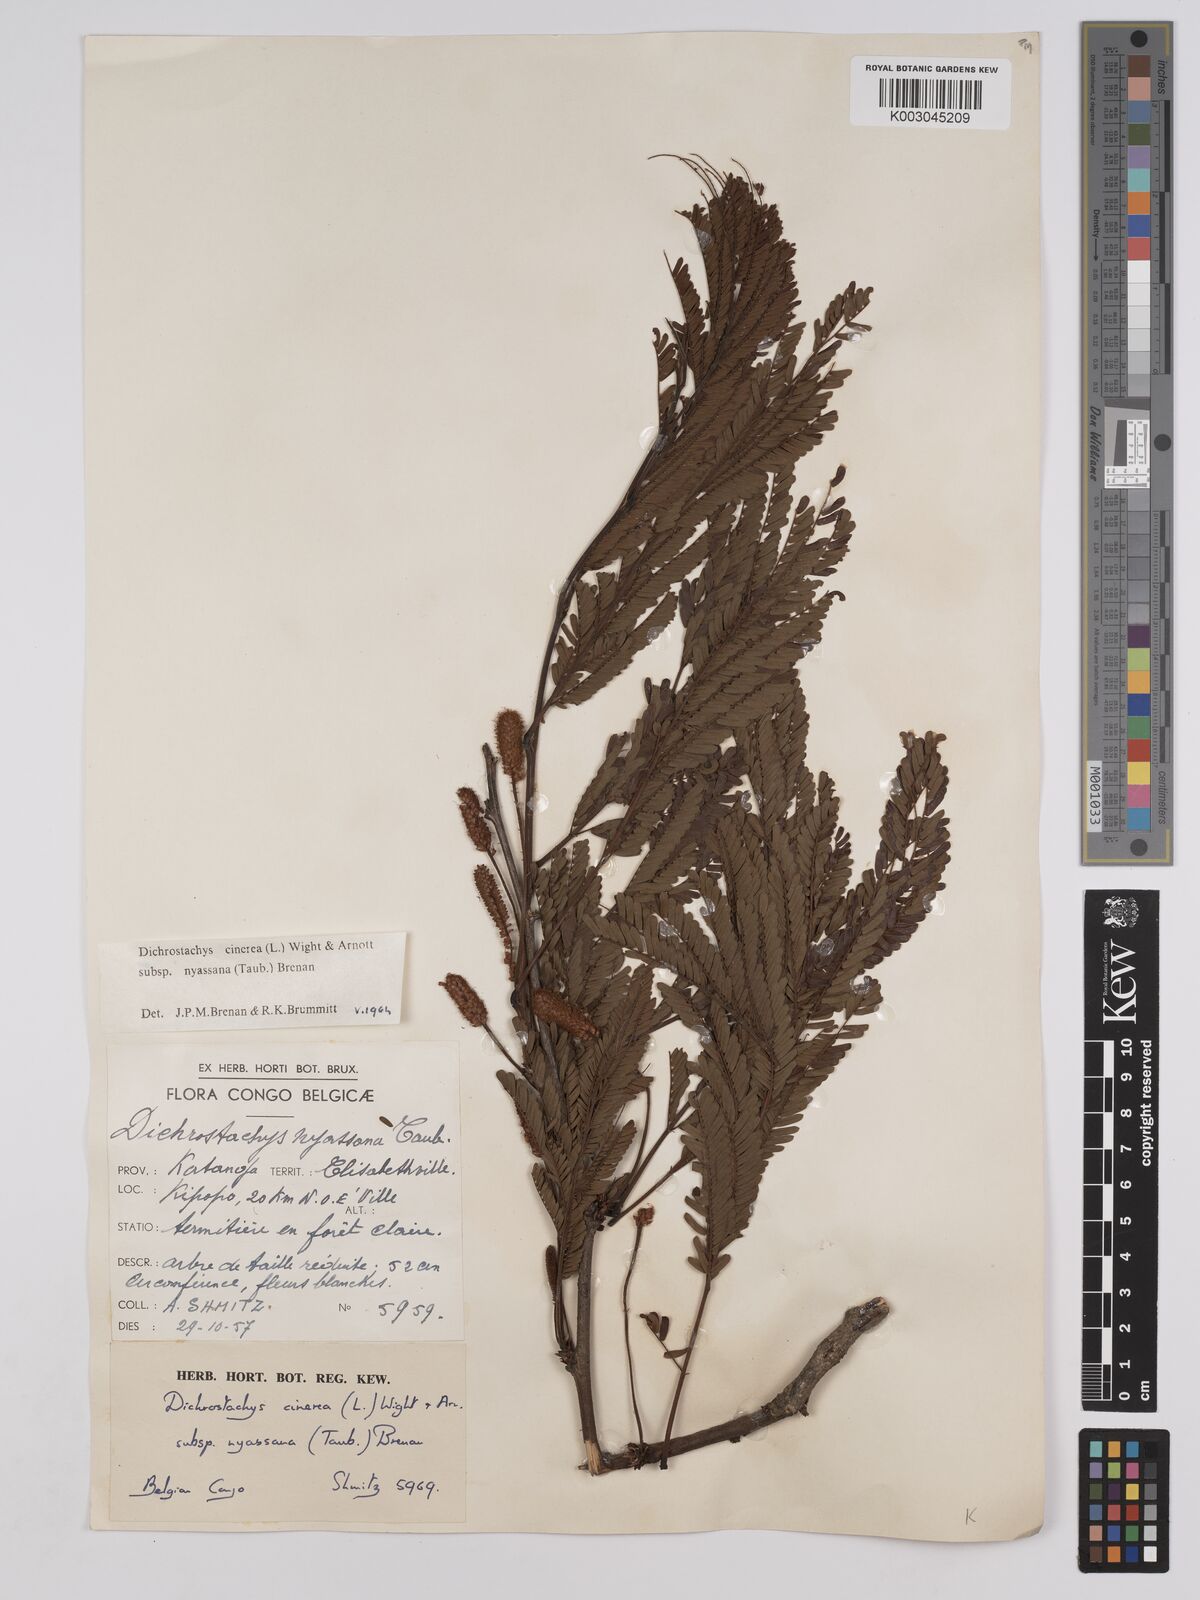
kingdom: Plantae
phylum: Tracheophyta
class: Magnoliopsida
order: Fabales
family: Fabaceae
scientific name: Fabaceae
